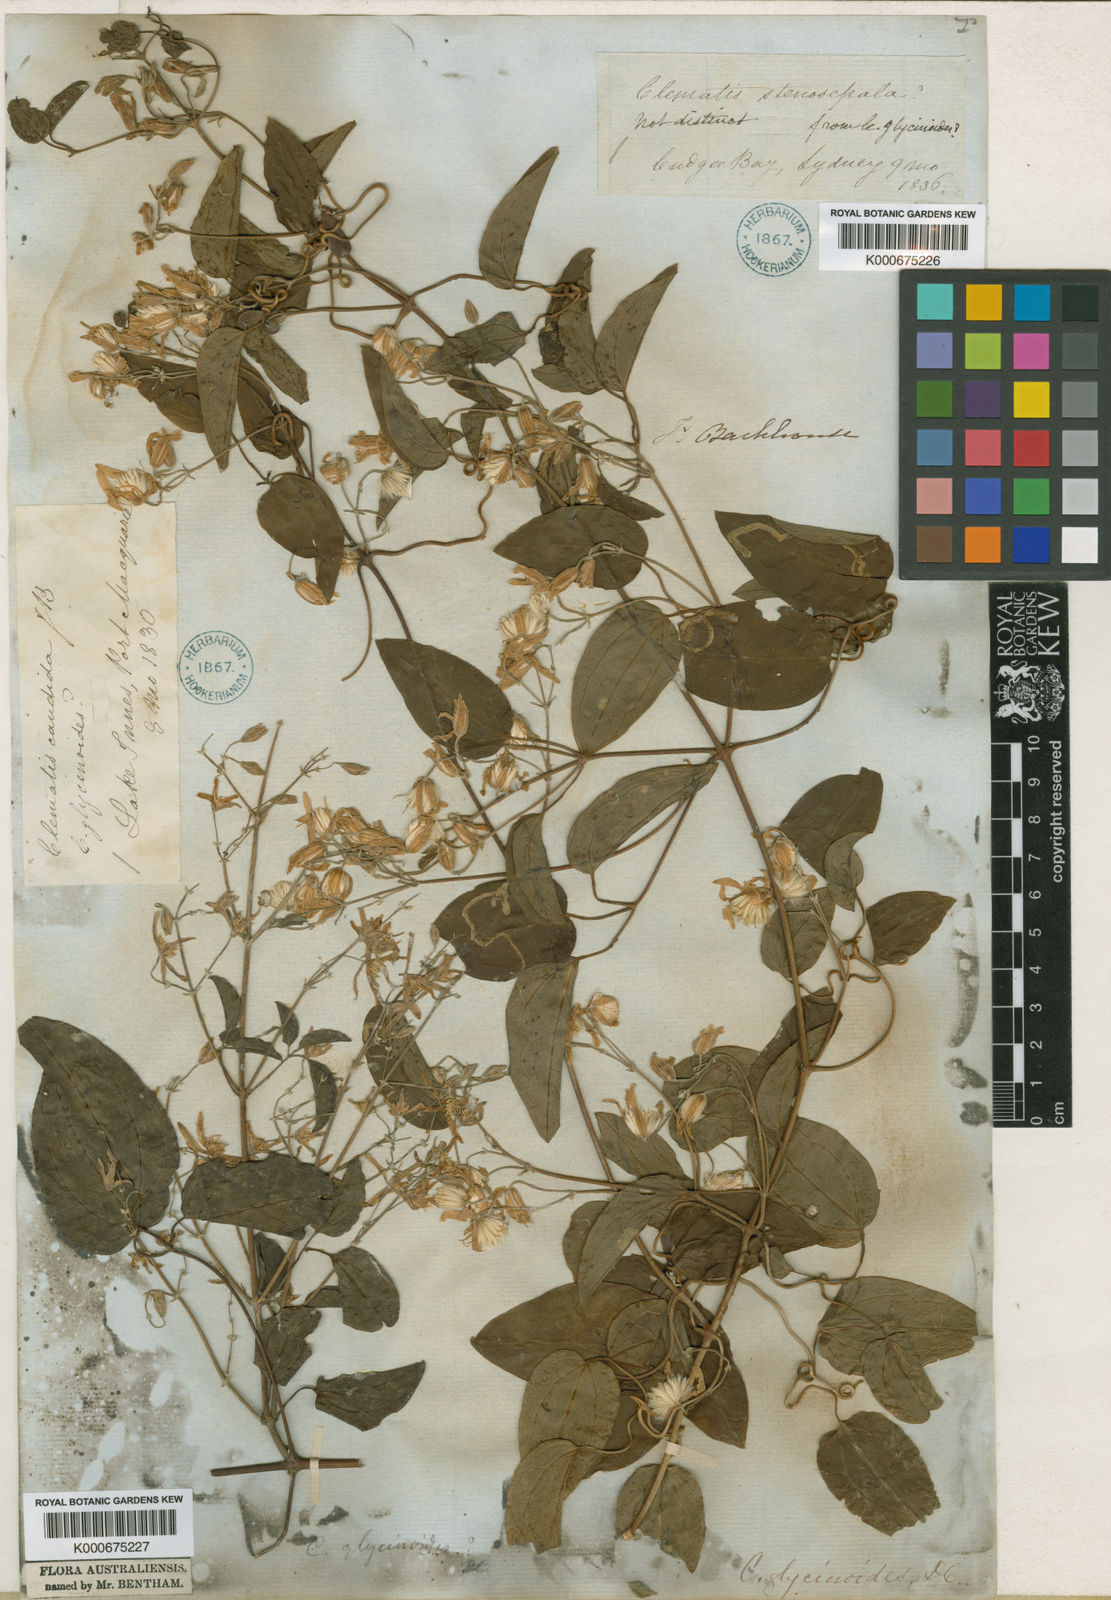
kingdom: Plantae
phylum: Tracheophyta
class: Magnoliopsida
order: Ranunculales
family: Ranunculaceae
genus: Clematis
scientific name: Clematis glycinoides
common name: Forest clematis
